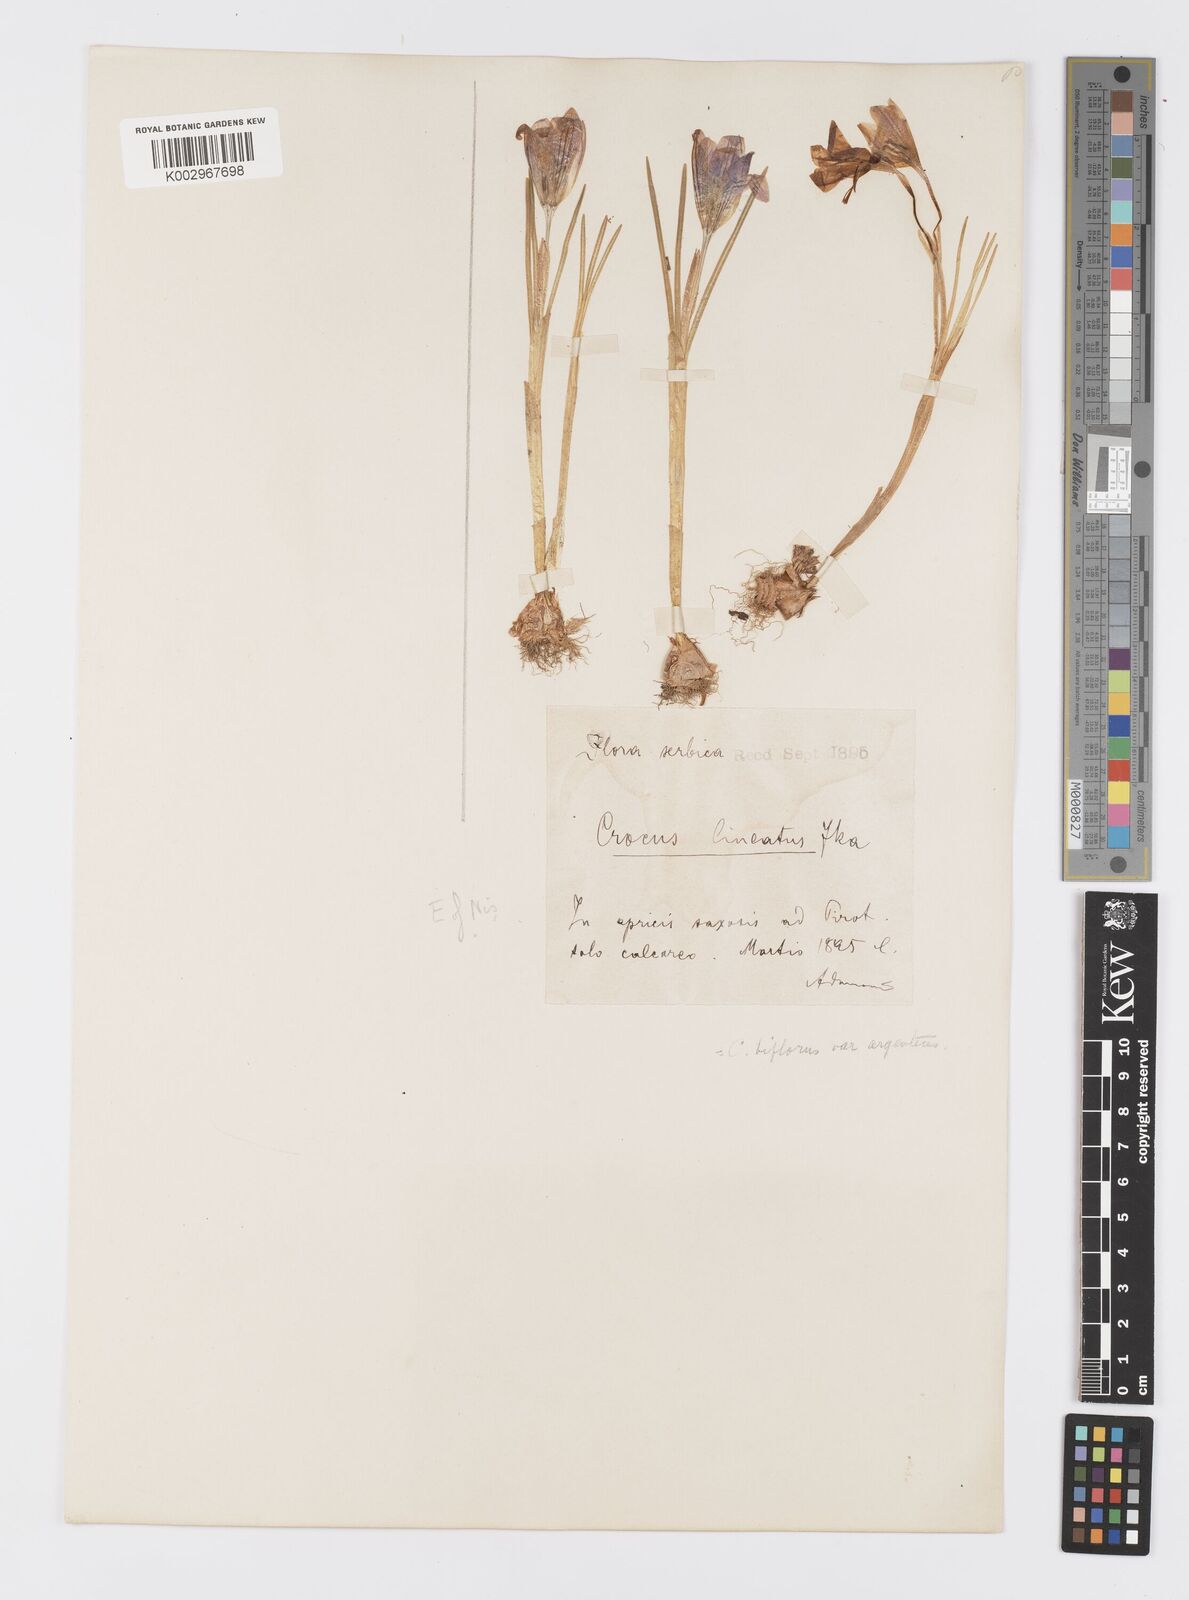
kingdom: Plantae
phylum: Tracheophyta
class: Liliopsida
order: Asparagales
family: Iridaceae
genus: Crocus
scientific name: Crocus adami
